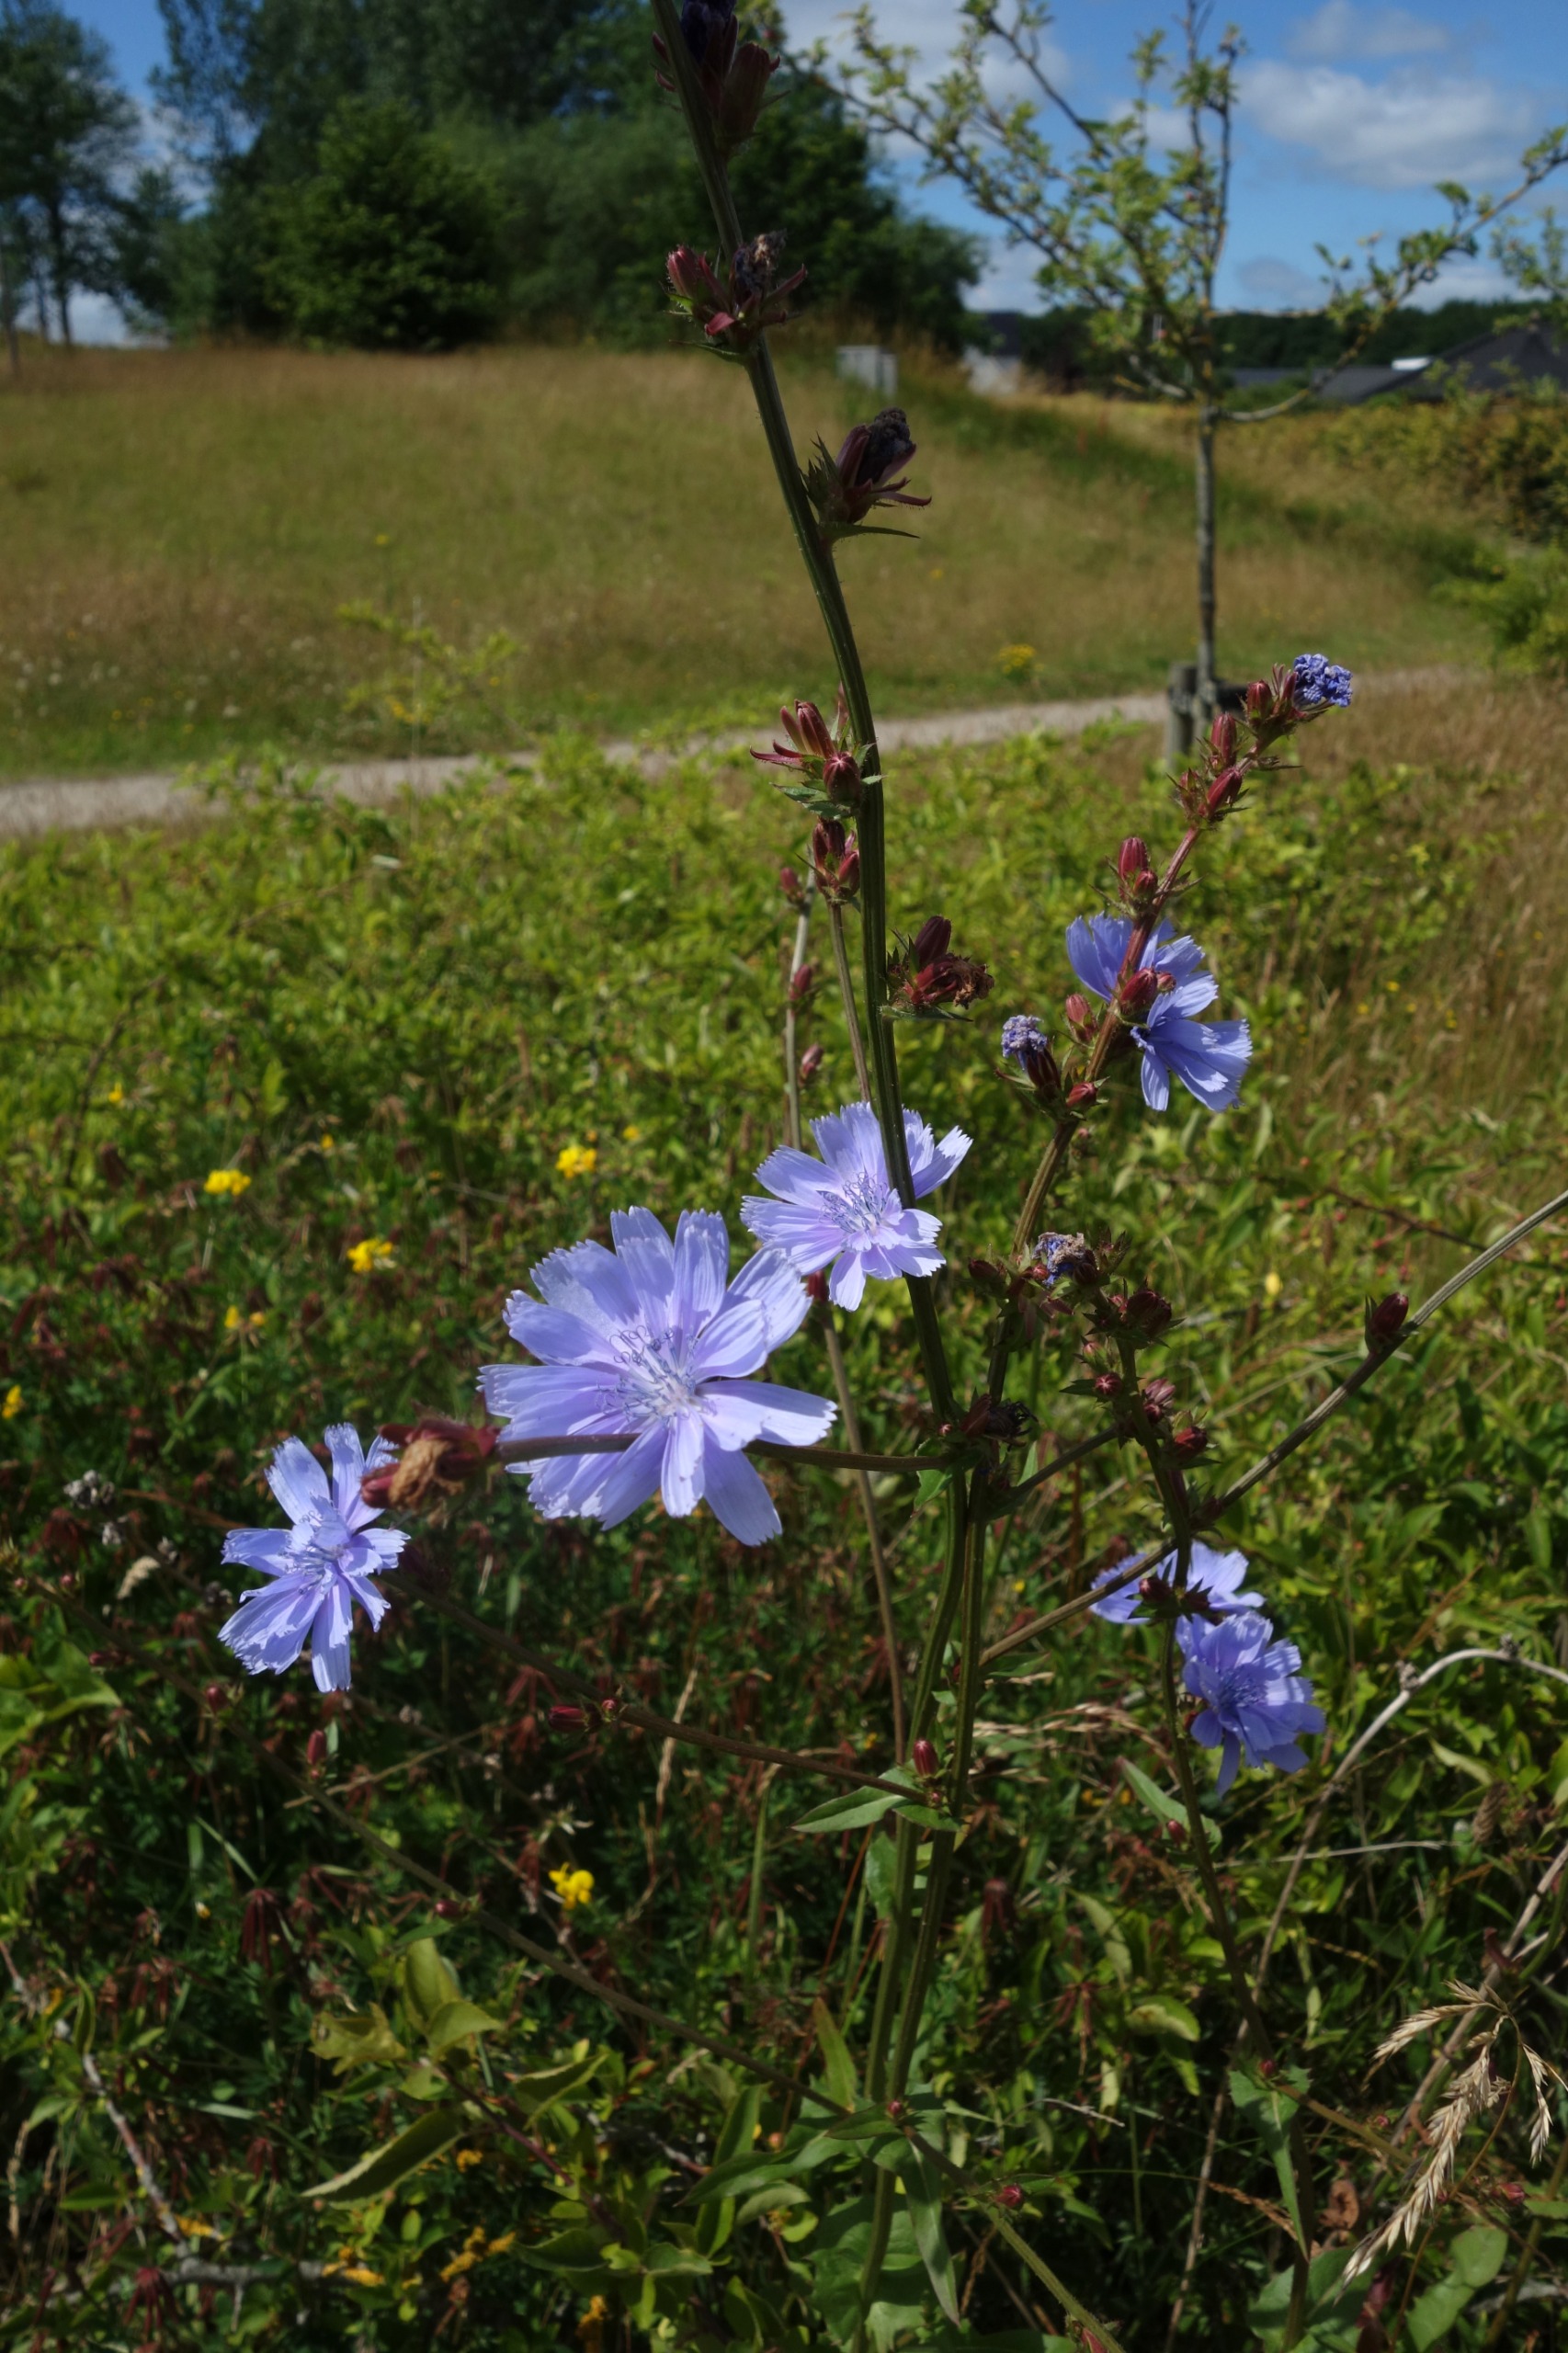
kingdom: Plantae
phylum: Tracheophyta
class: Magnoliopsida
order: Asterales
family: Asteraceae
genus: Cichorium
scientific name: Cichorium intybus
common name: Cikorie
